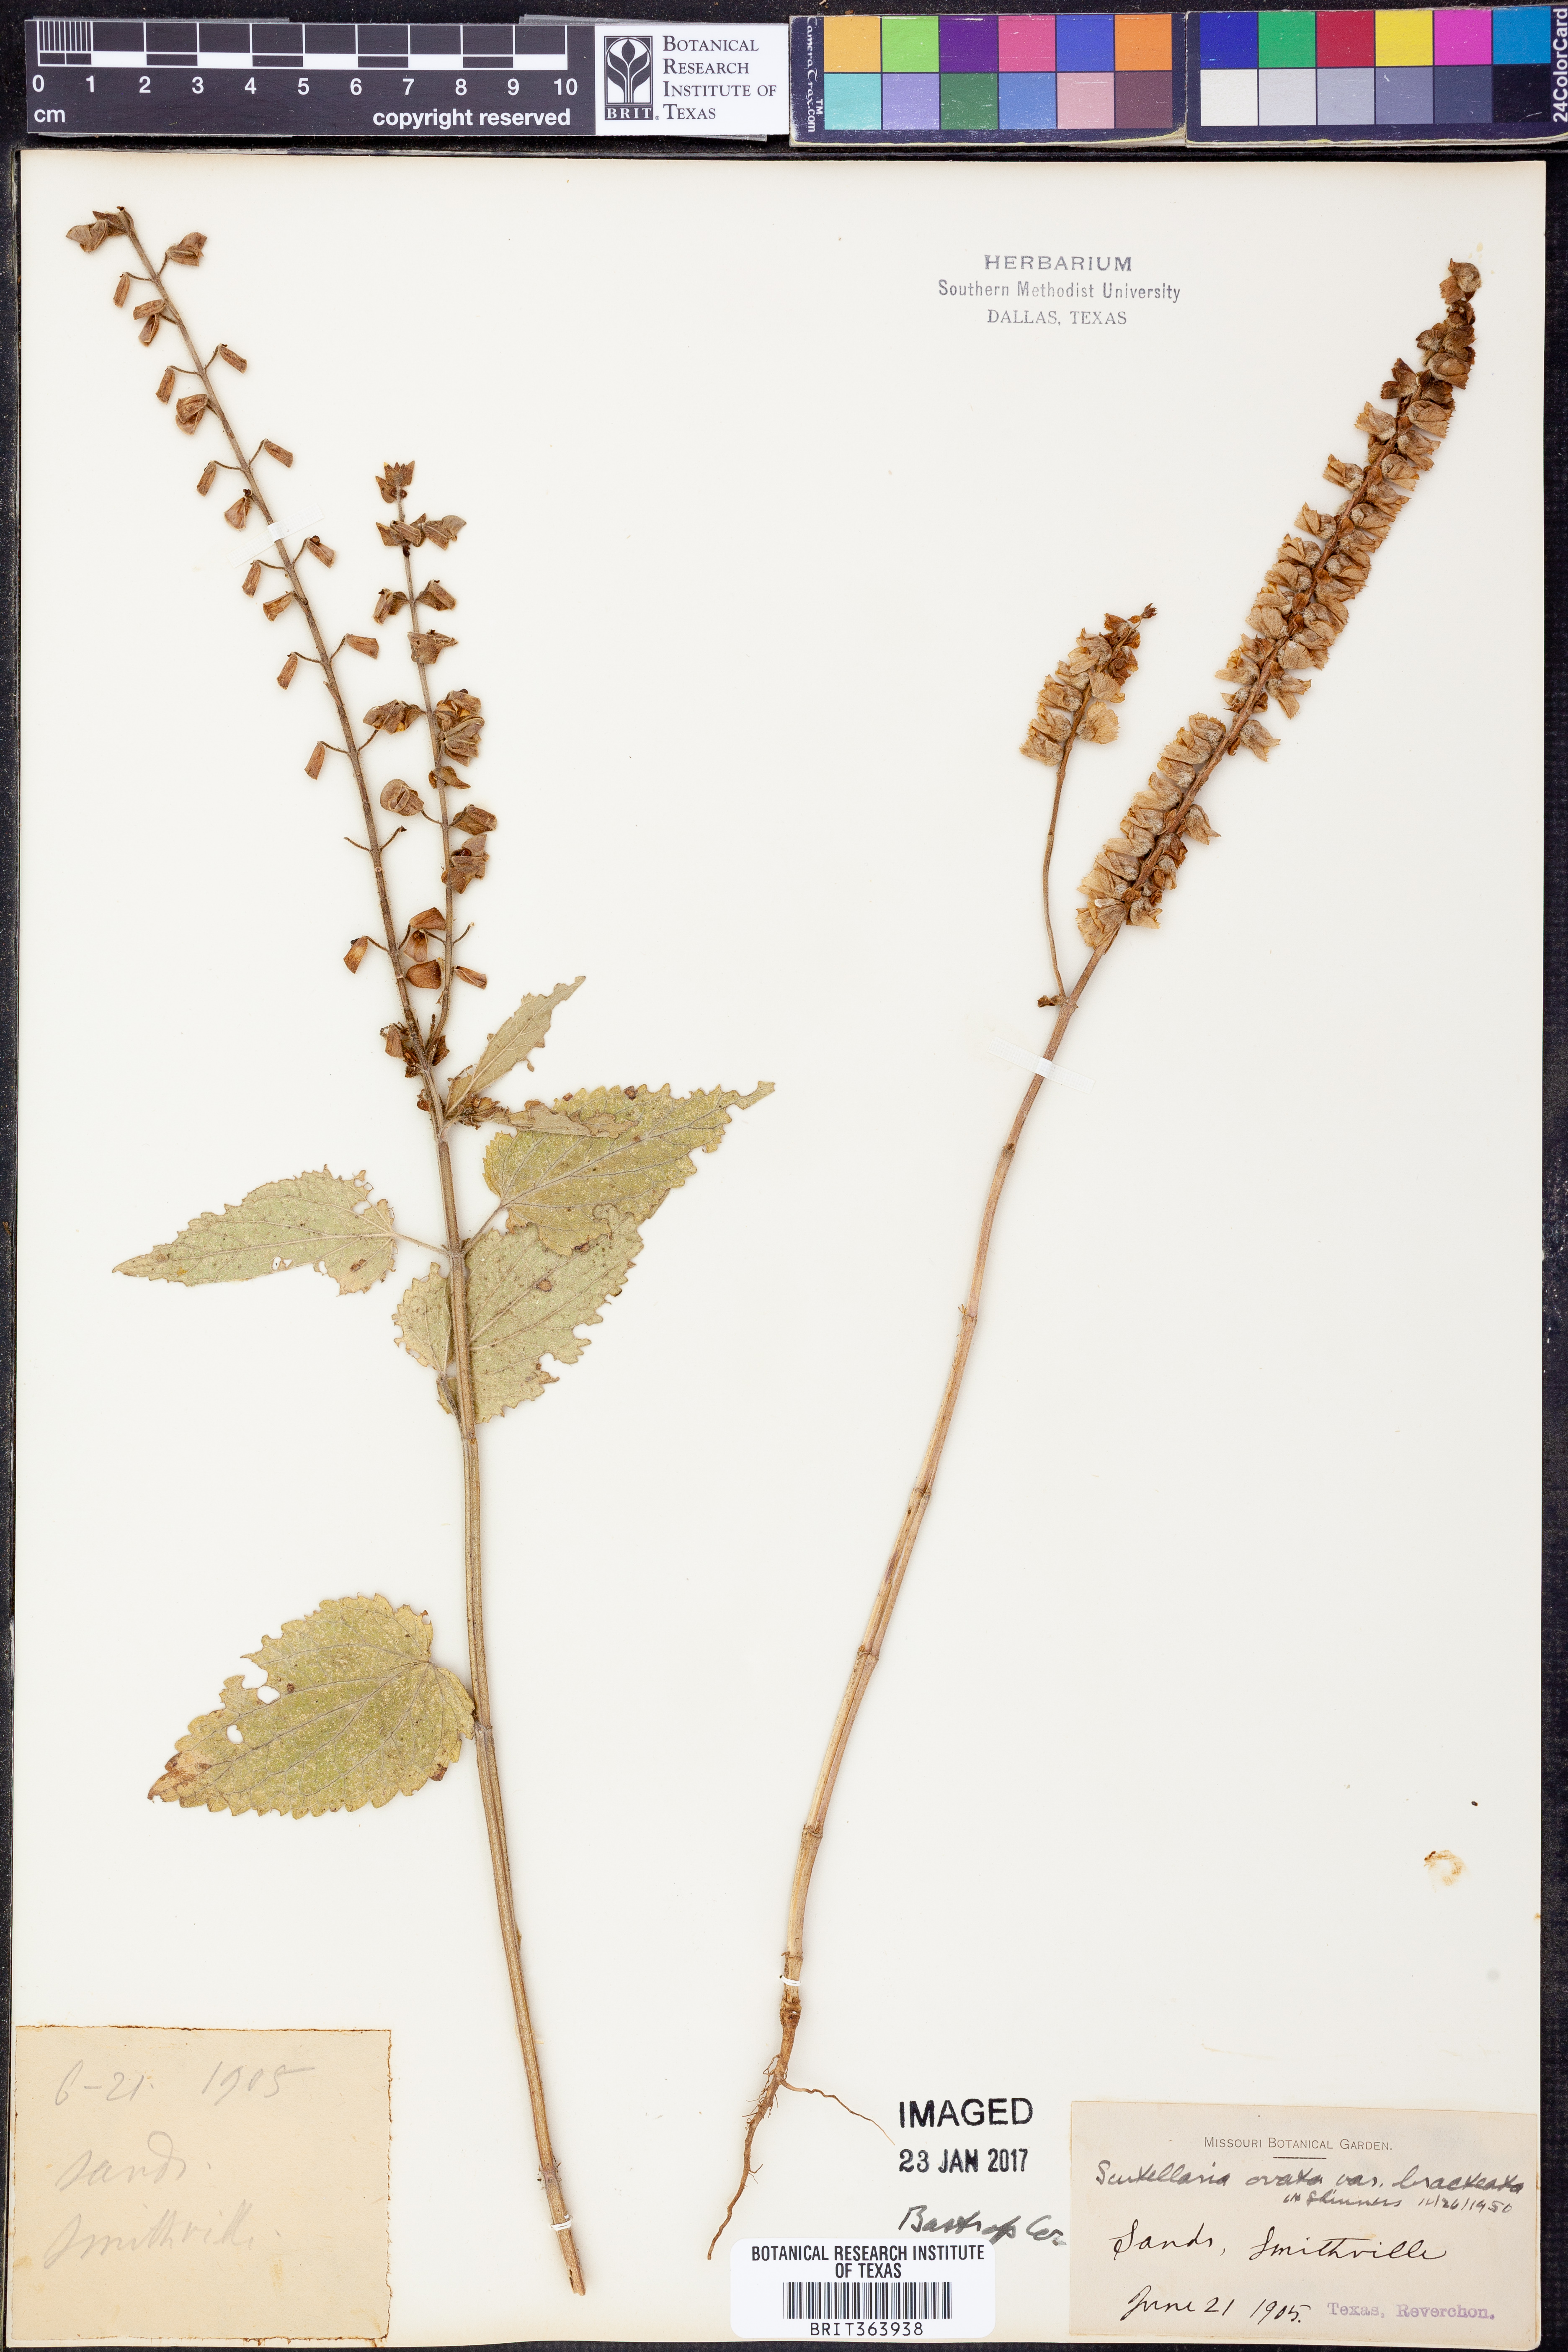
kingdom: Plantae
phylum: Tracheophyta
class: Magnoliopsida
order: Lamiales
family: Lamiaceae
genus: Scutellaria
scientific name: Scutellaria ovata
